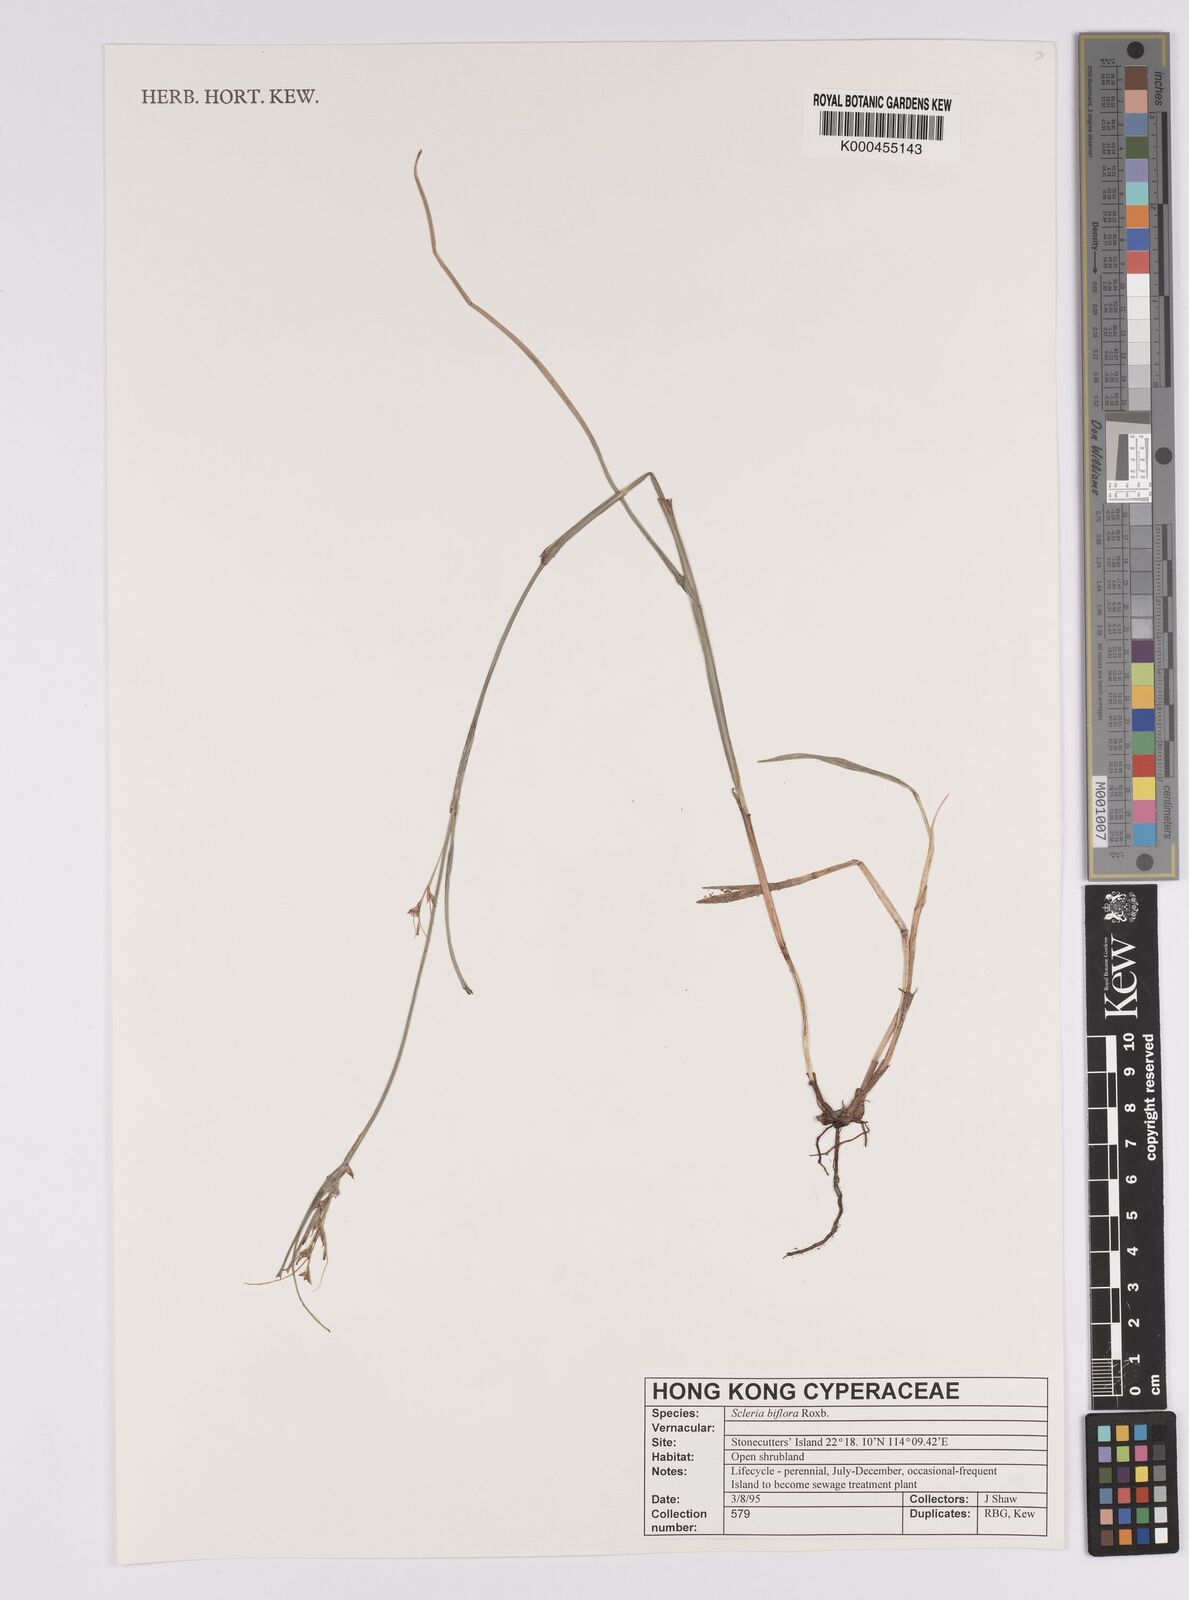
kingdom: Plantae
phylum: Tracheophyta
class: Liliopsida
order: Poales
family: Cyperaceae
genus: Scleria
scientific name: Scleria biflora
